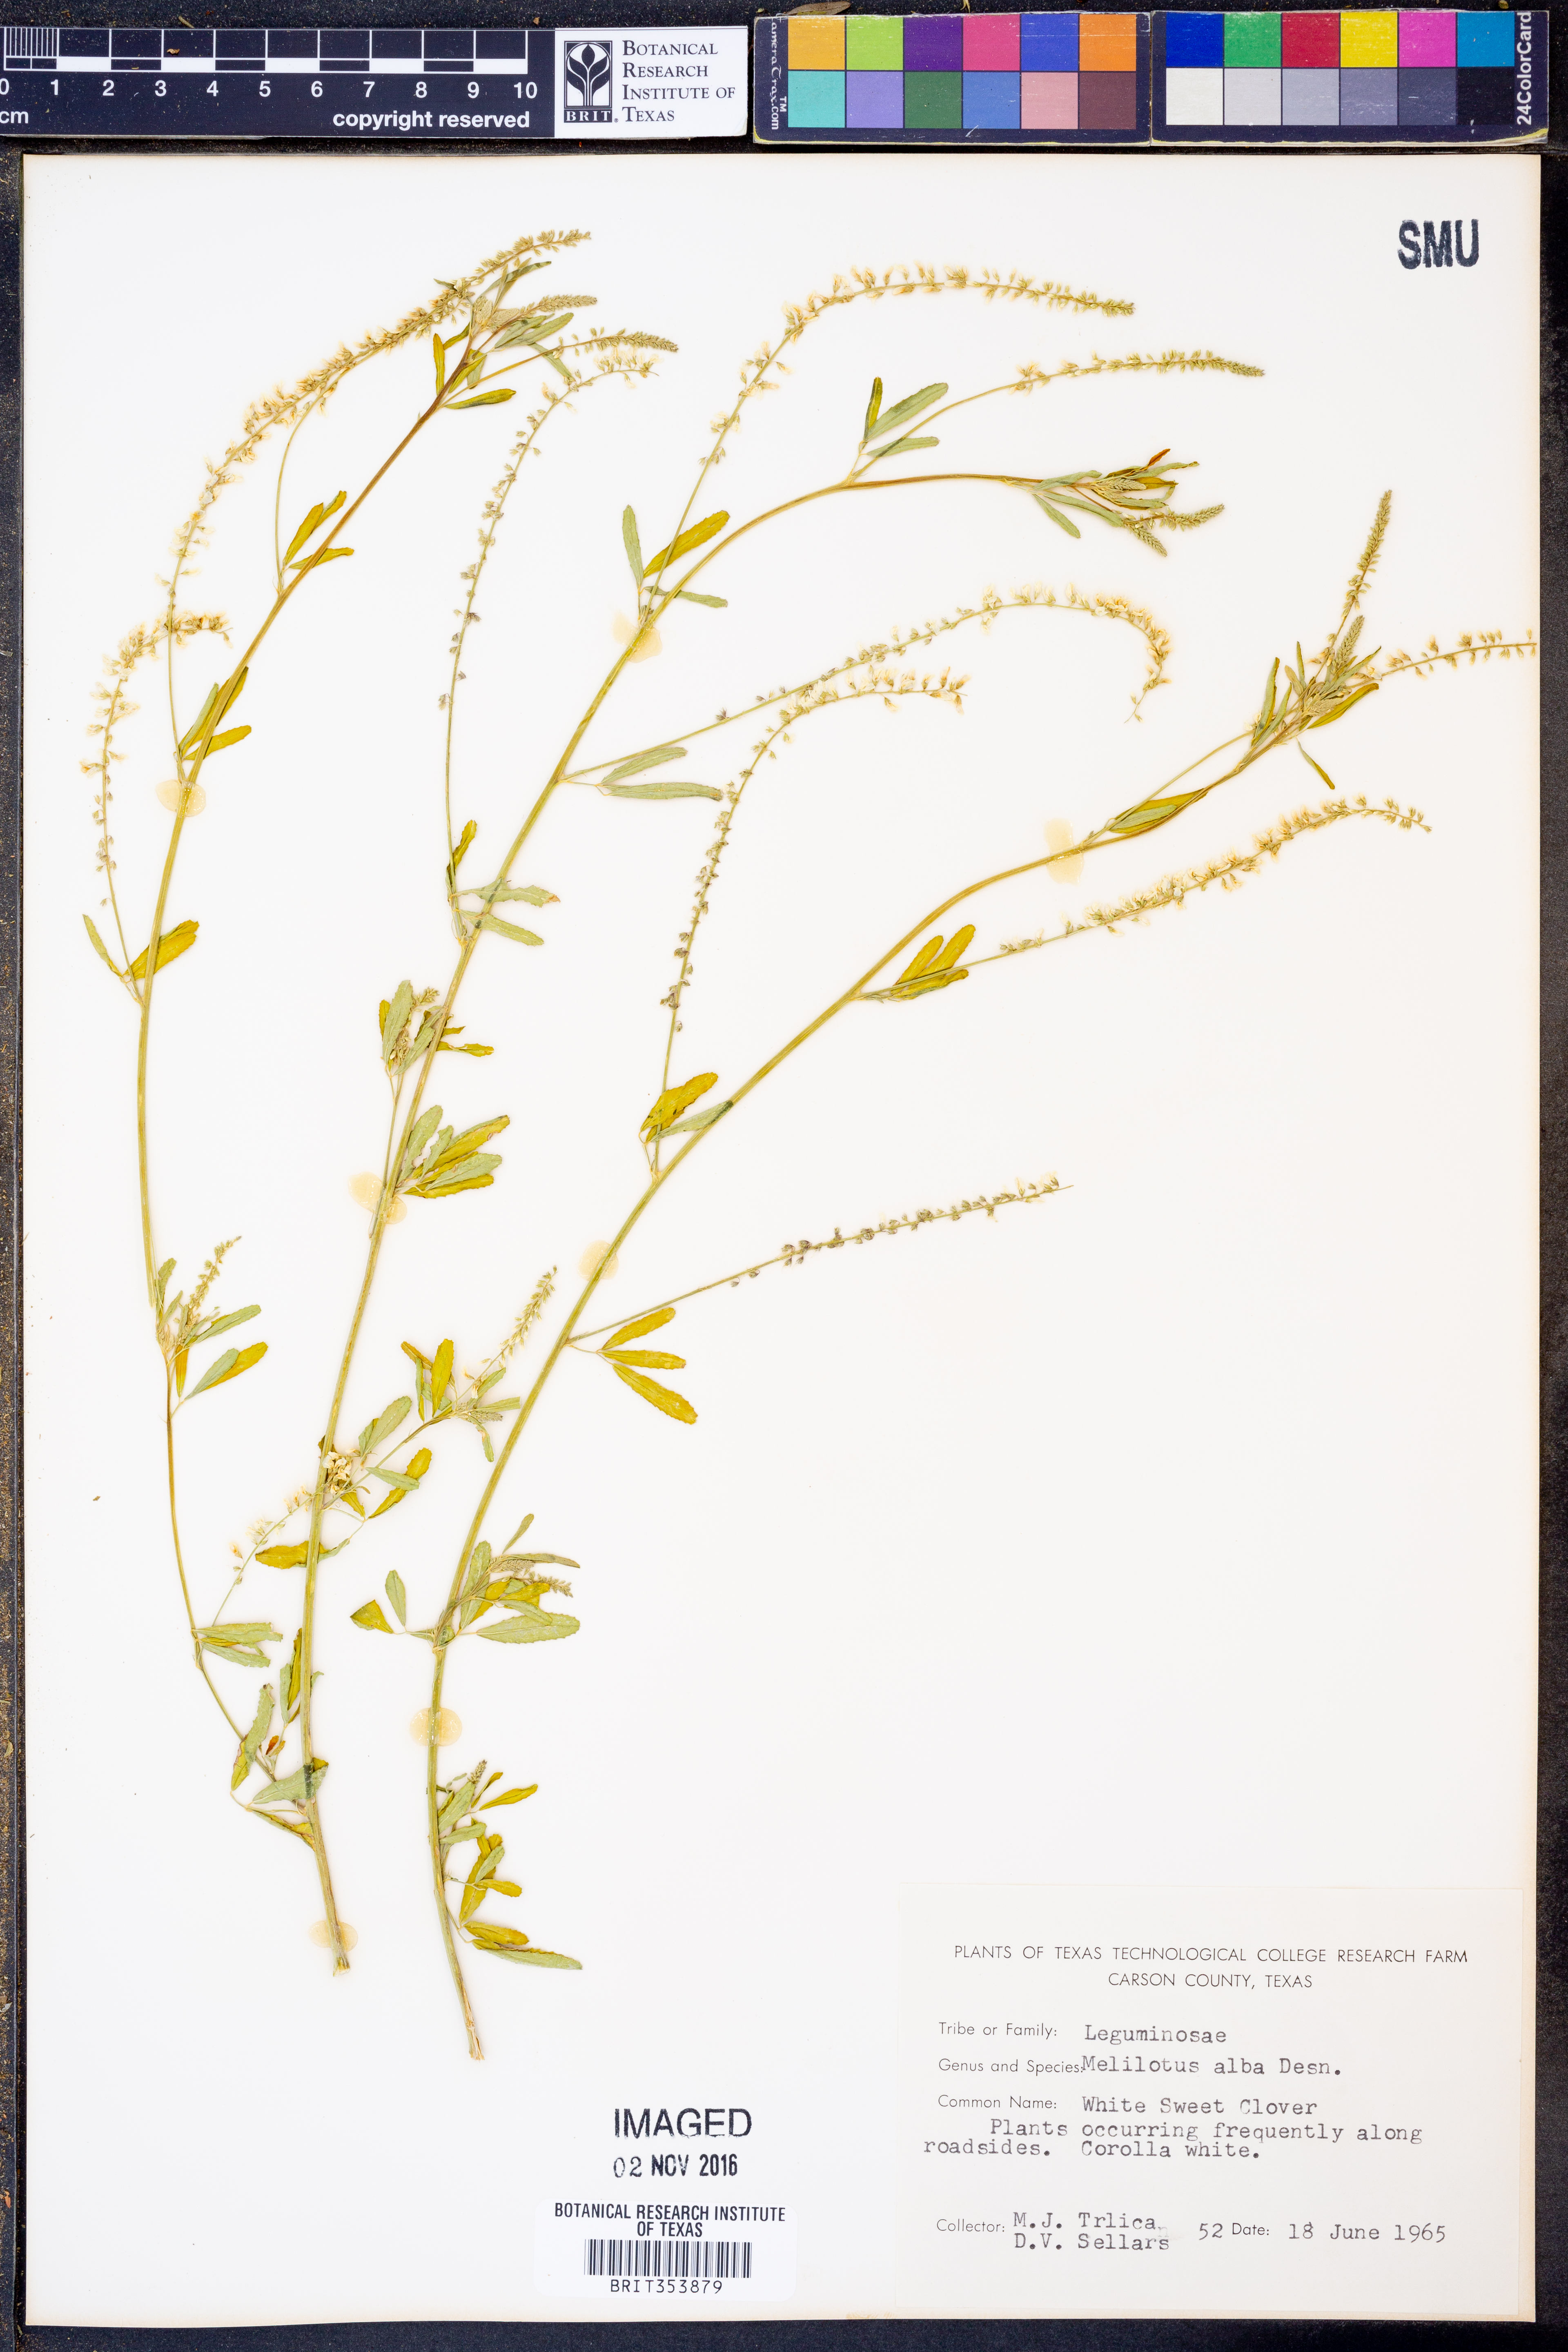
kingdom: Plantae
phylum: Tracheophyta
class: Magnoliopsida
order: Fabales
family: Fabaceae
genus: Melilotus
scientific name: Melilotus albus
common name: White melilot
